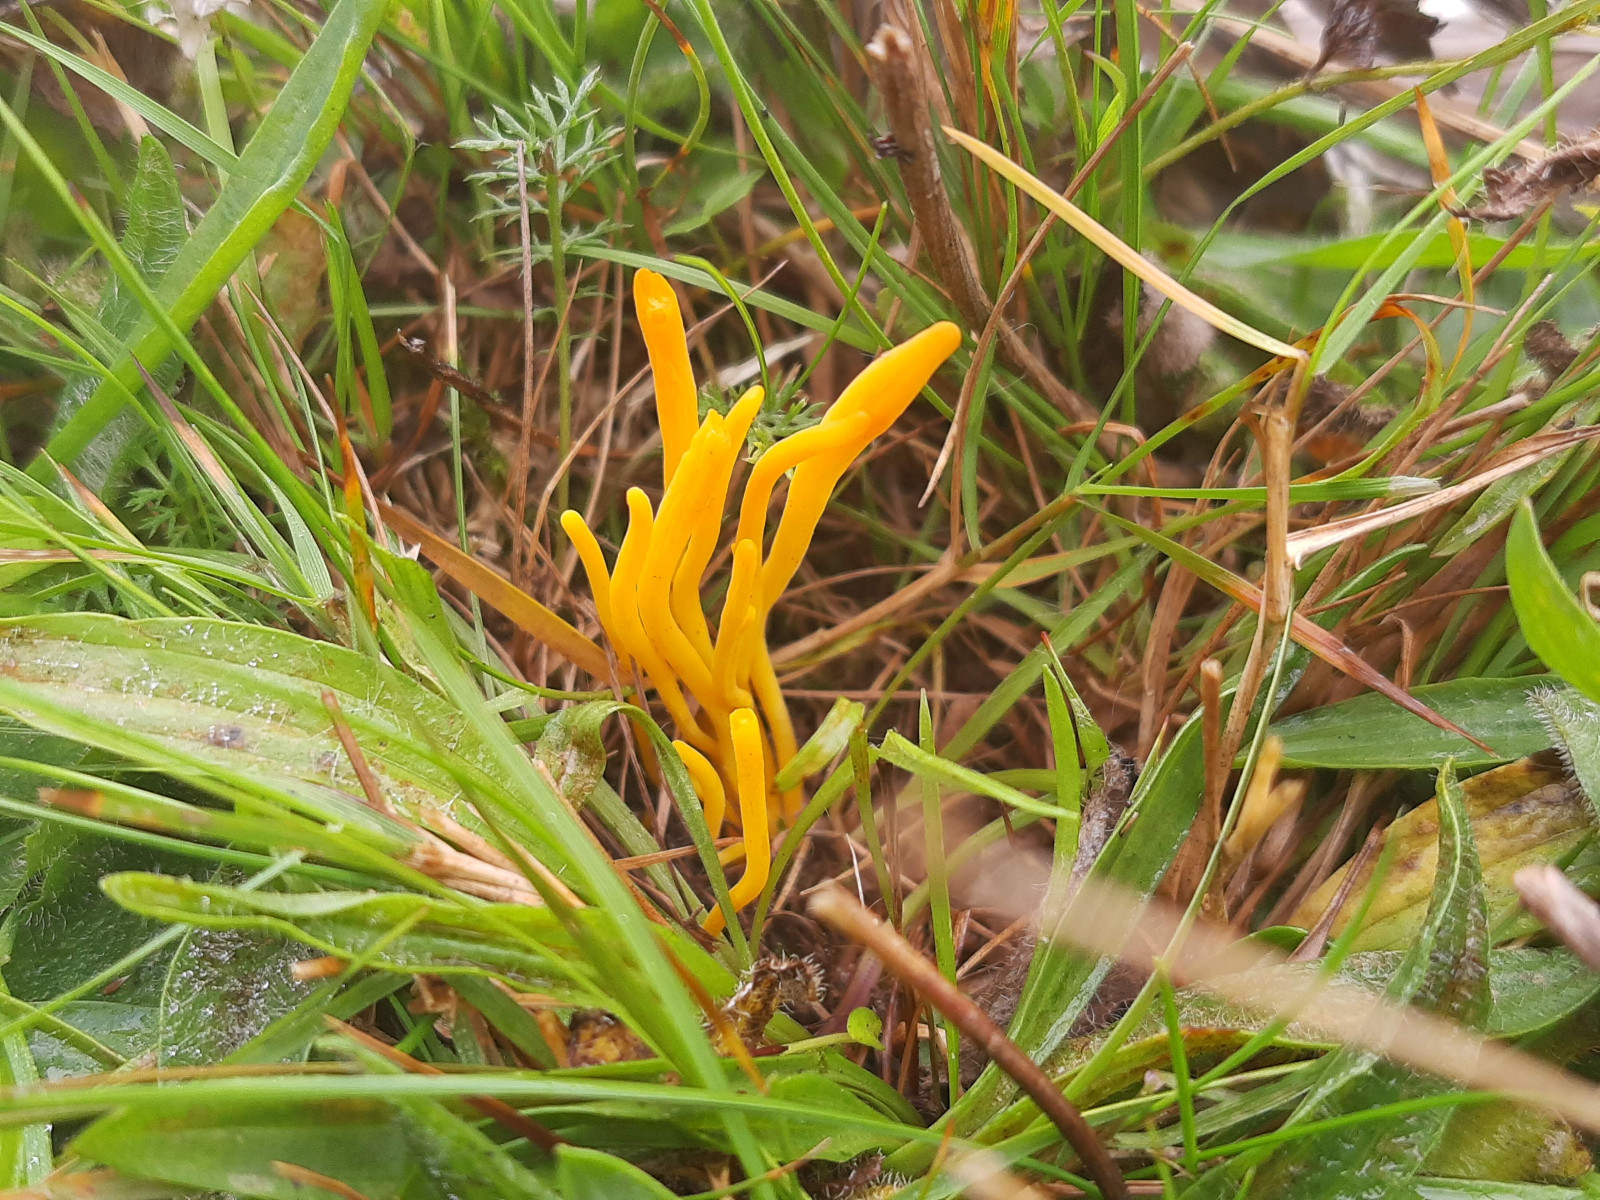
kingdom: Fungi
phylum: Basidiomycota
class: Agaricomycetes
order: Agaricales
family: Clavariaceae
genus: Clavulinopsis
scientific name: Clavulinopsis helvola
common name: orangegul køllesvamp
